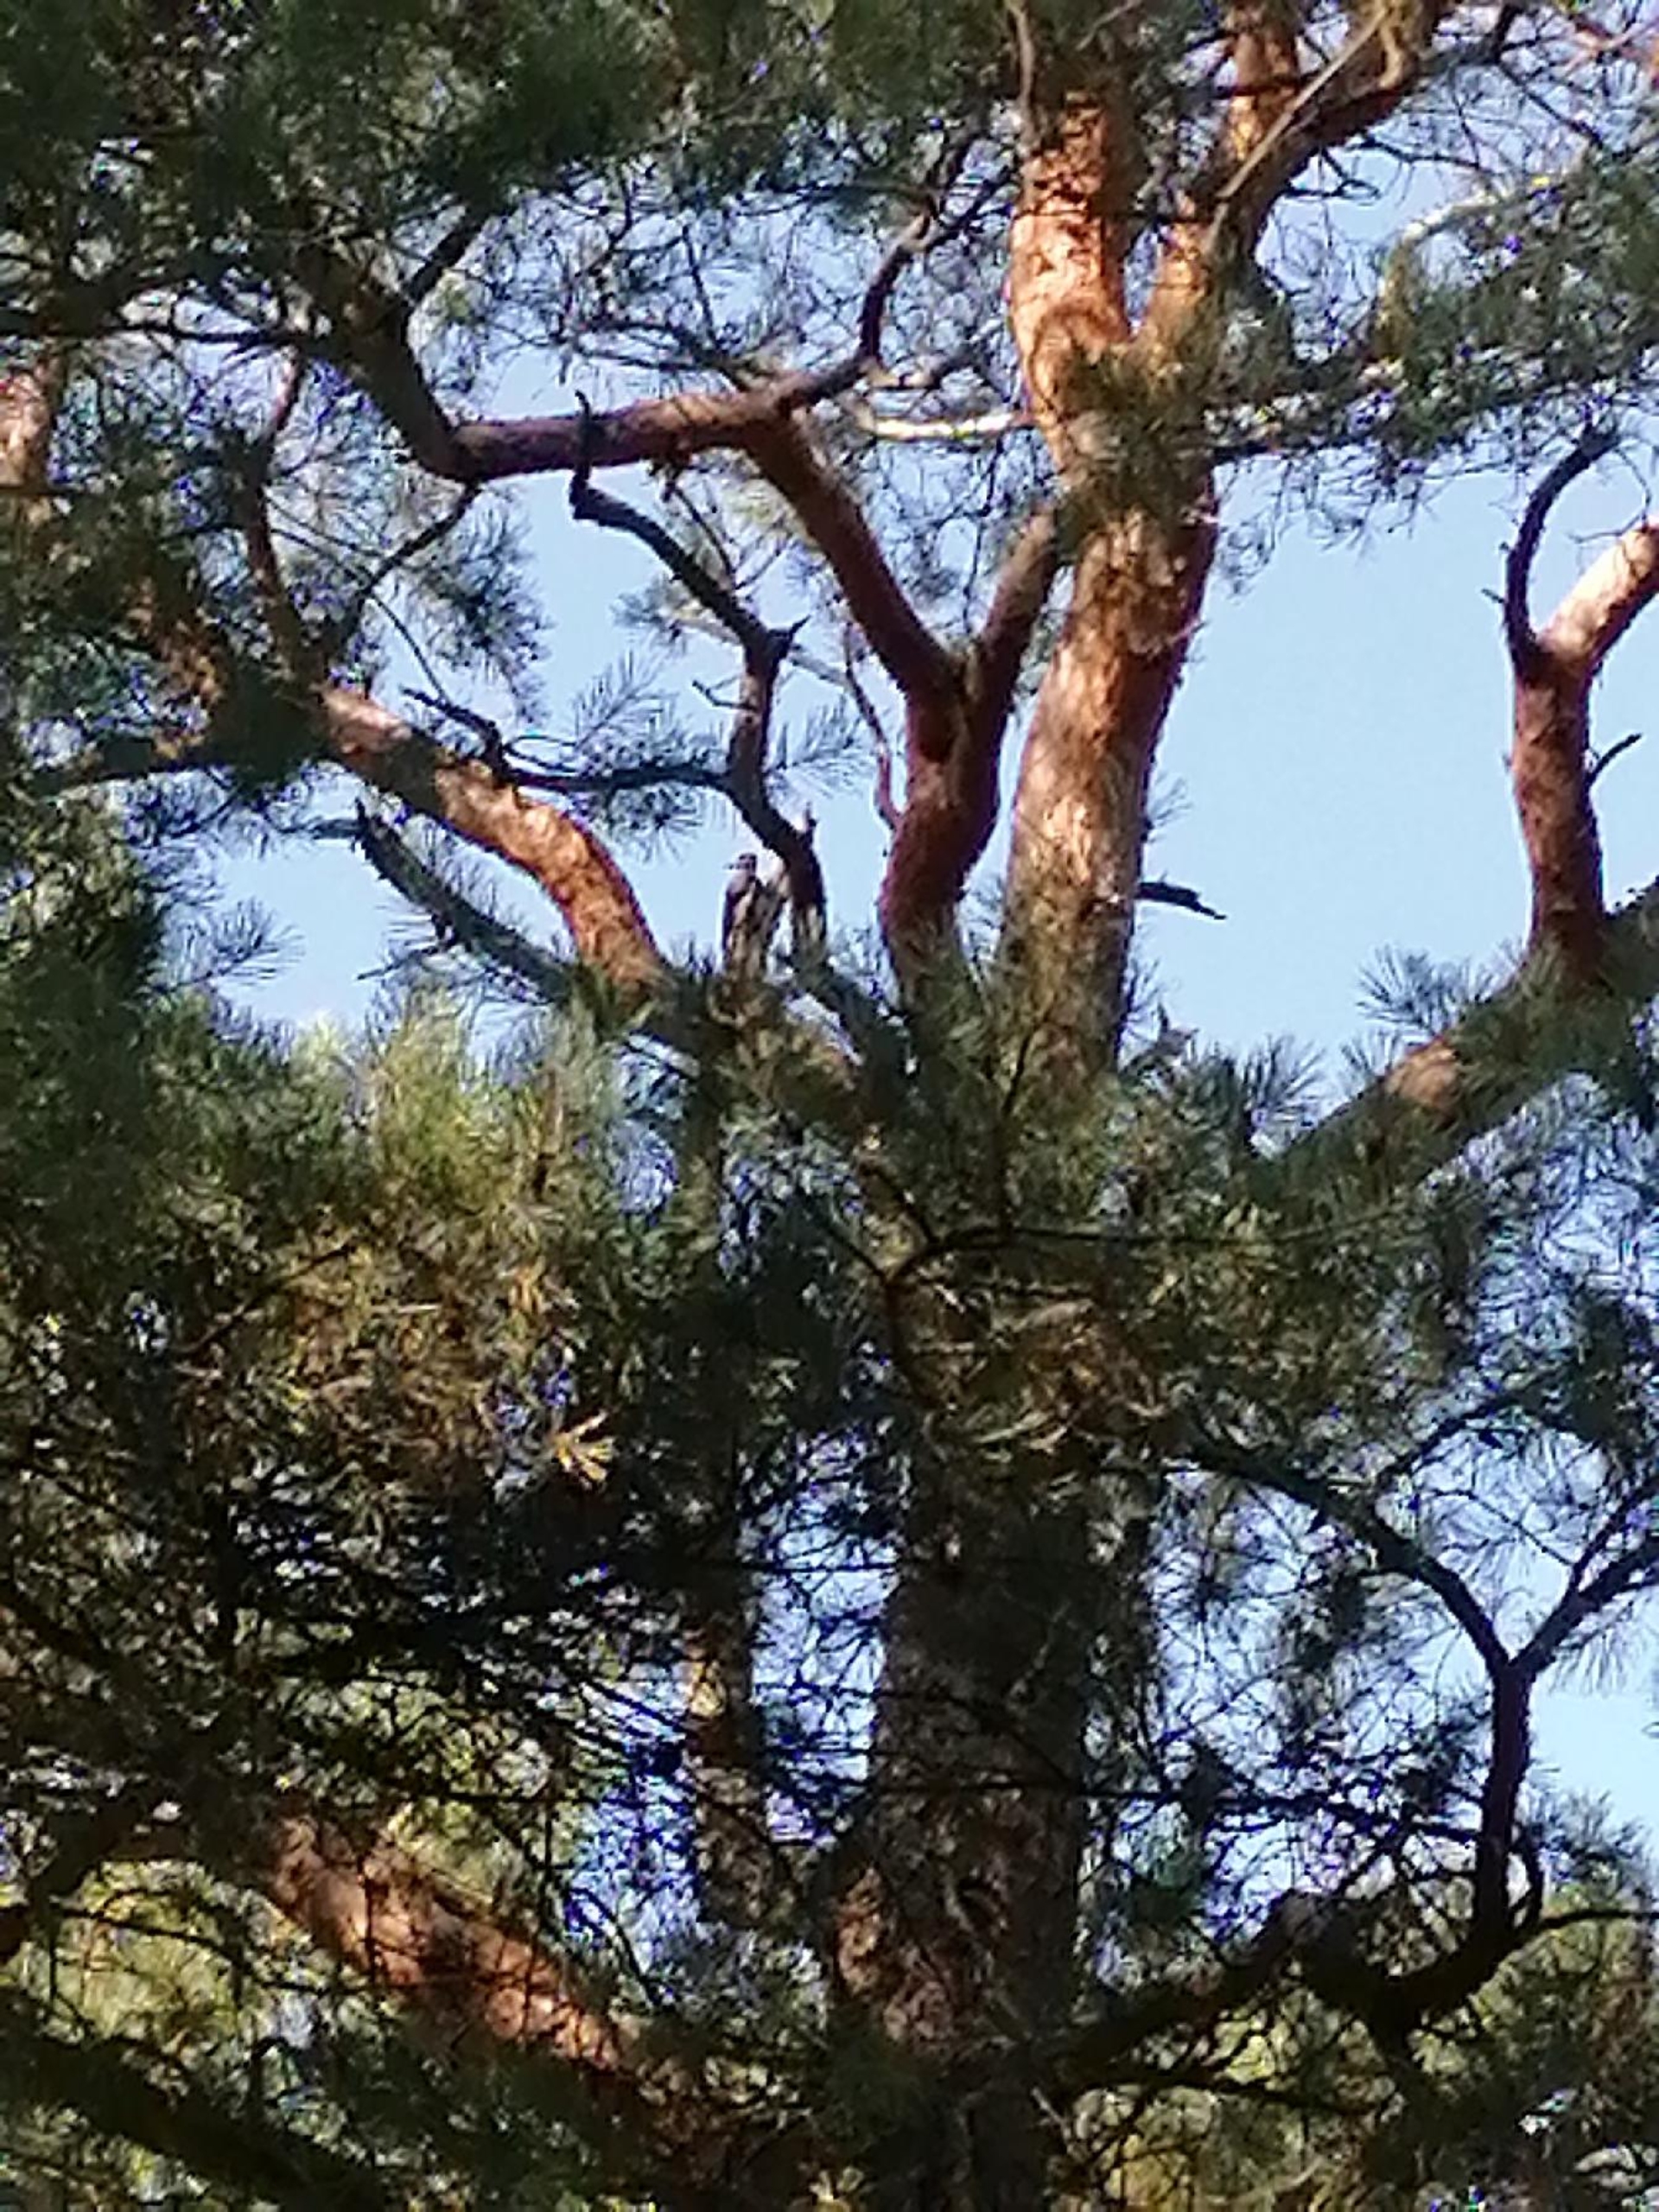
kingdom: Animalia
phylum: Chordata
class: Aves
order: Piciformes
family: Picidae
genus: Dendrocopos
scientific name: Dendrocopos major
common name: Stor flagspætte
